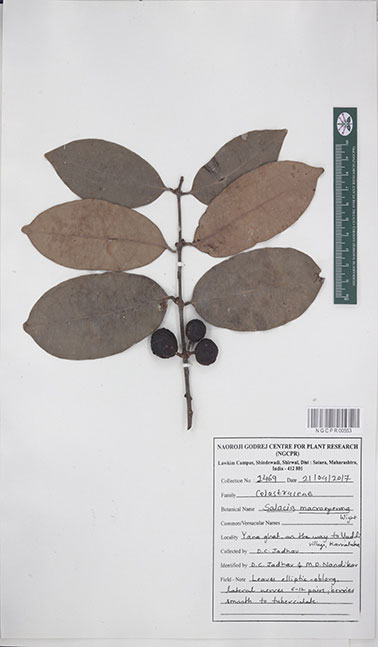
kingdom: Plantae
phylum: Tracheophyta
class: Magnoliopsida
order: Celastrales
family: Celastraceae
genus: Salacia
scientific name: Salacia macrosperma
